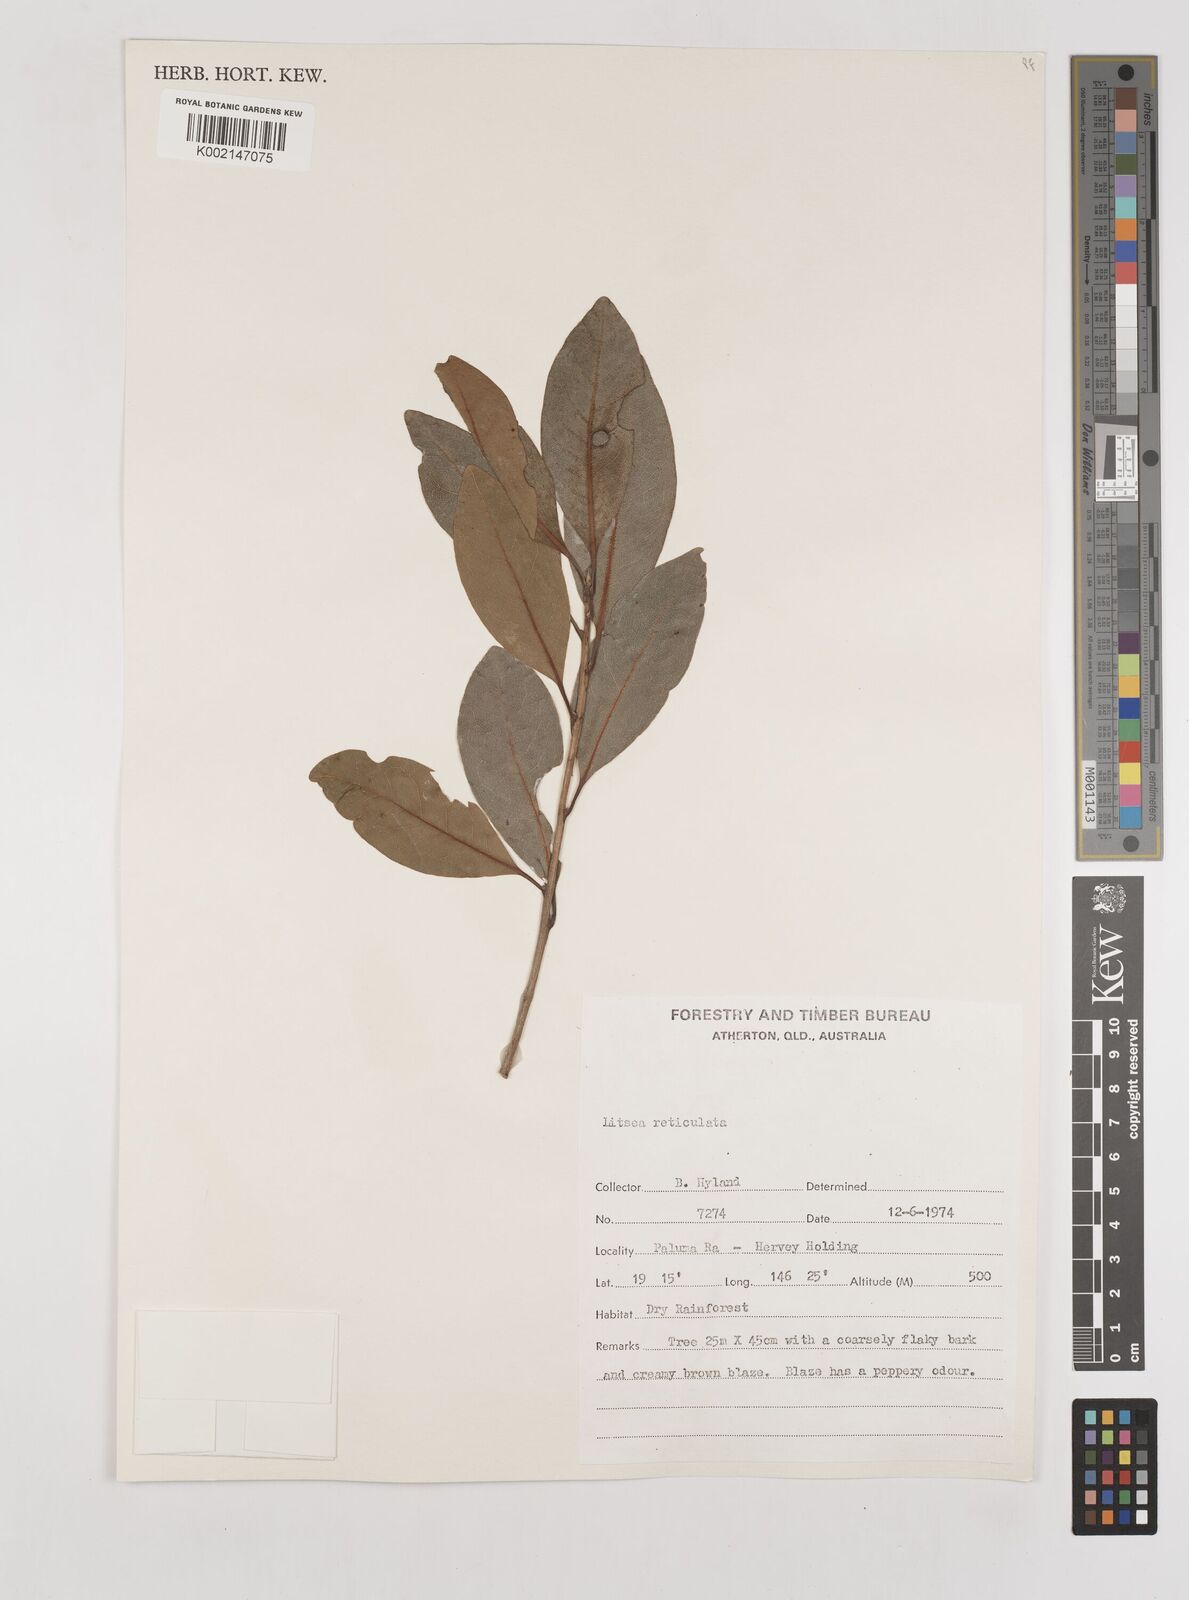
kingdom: Plantae
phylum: Tracheophyta
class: Magnoliopsida
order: Laurales
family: Lauraceae
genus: Litsea
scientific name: Litsea reticulata
